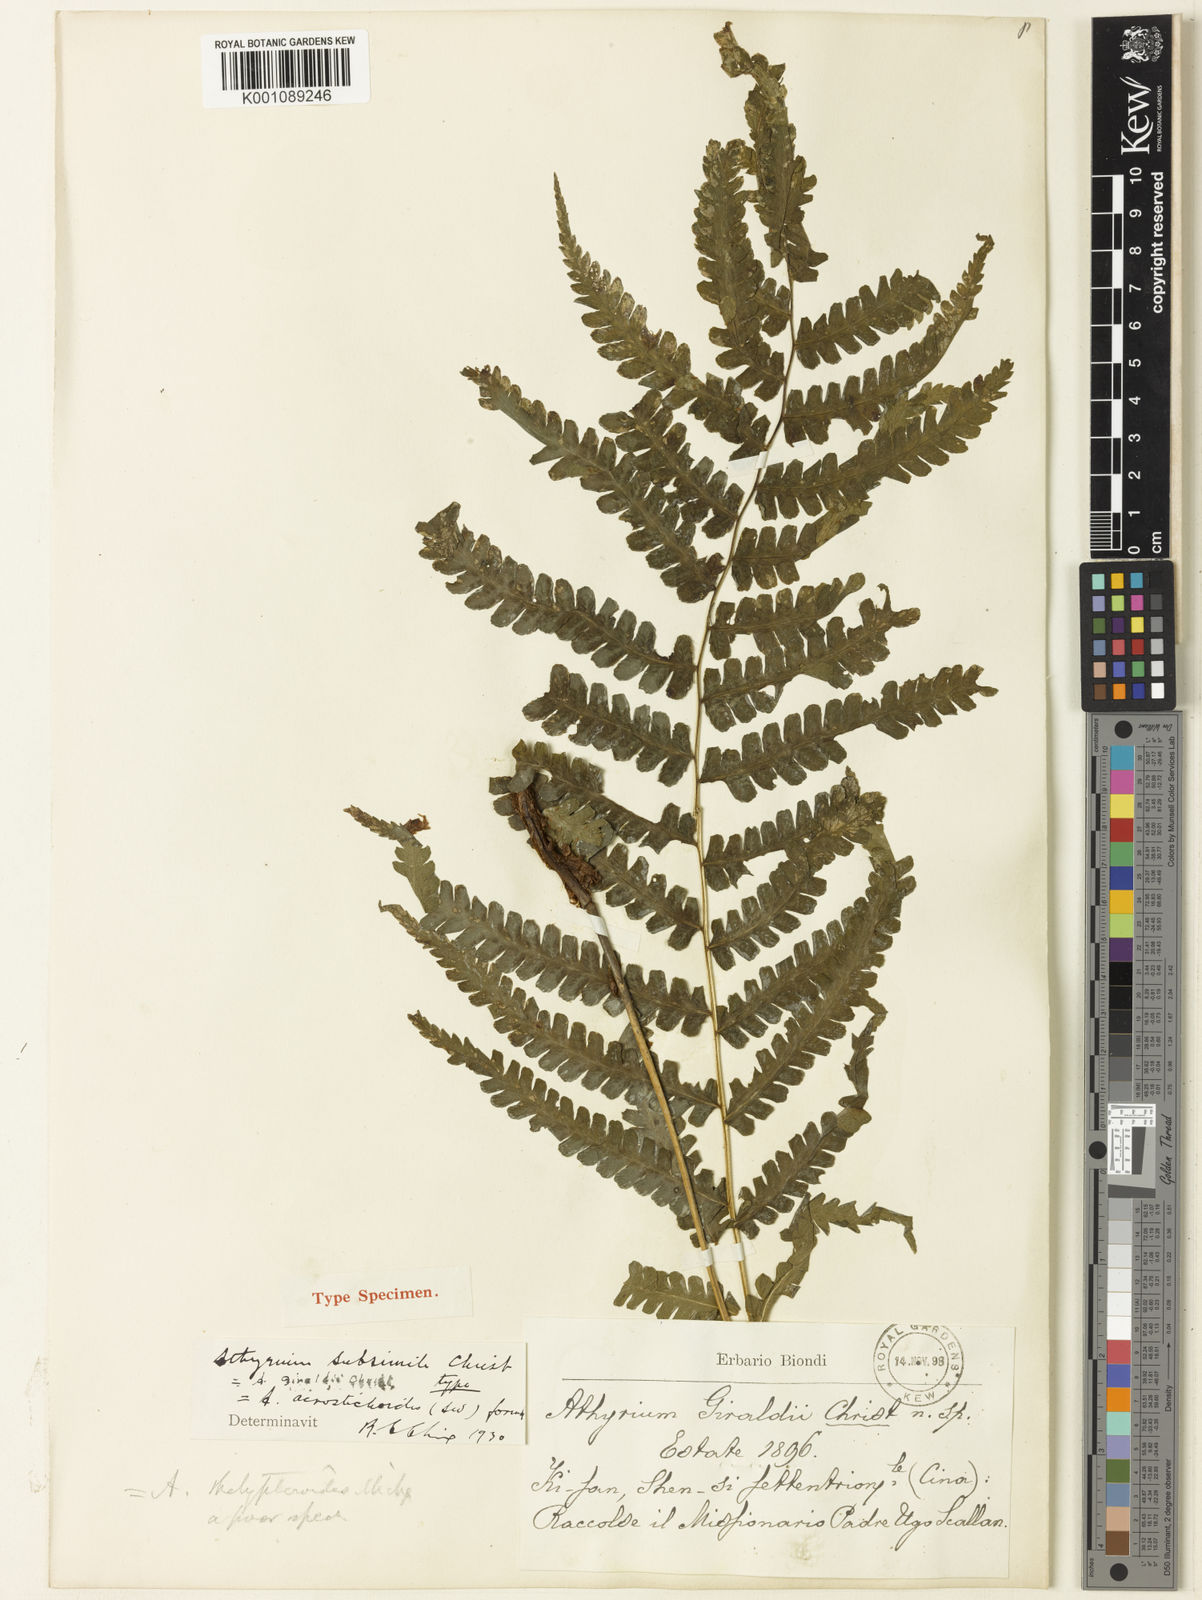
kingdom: Plantae
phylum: Tracheophyta
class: Polypodiopsida
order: Polypodiales
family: Athyriaceae
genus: Deparia
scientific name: Deparia allantodioides
